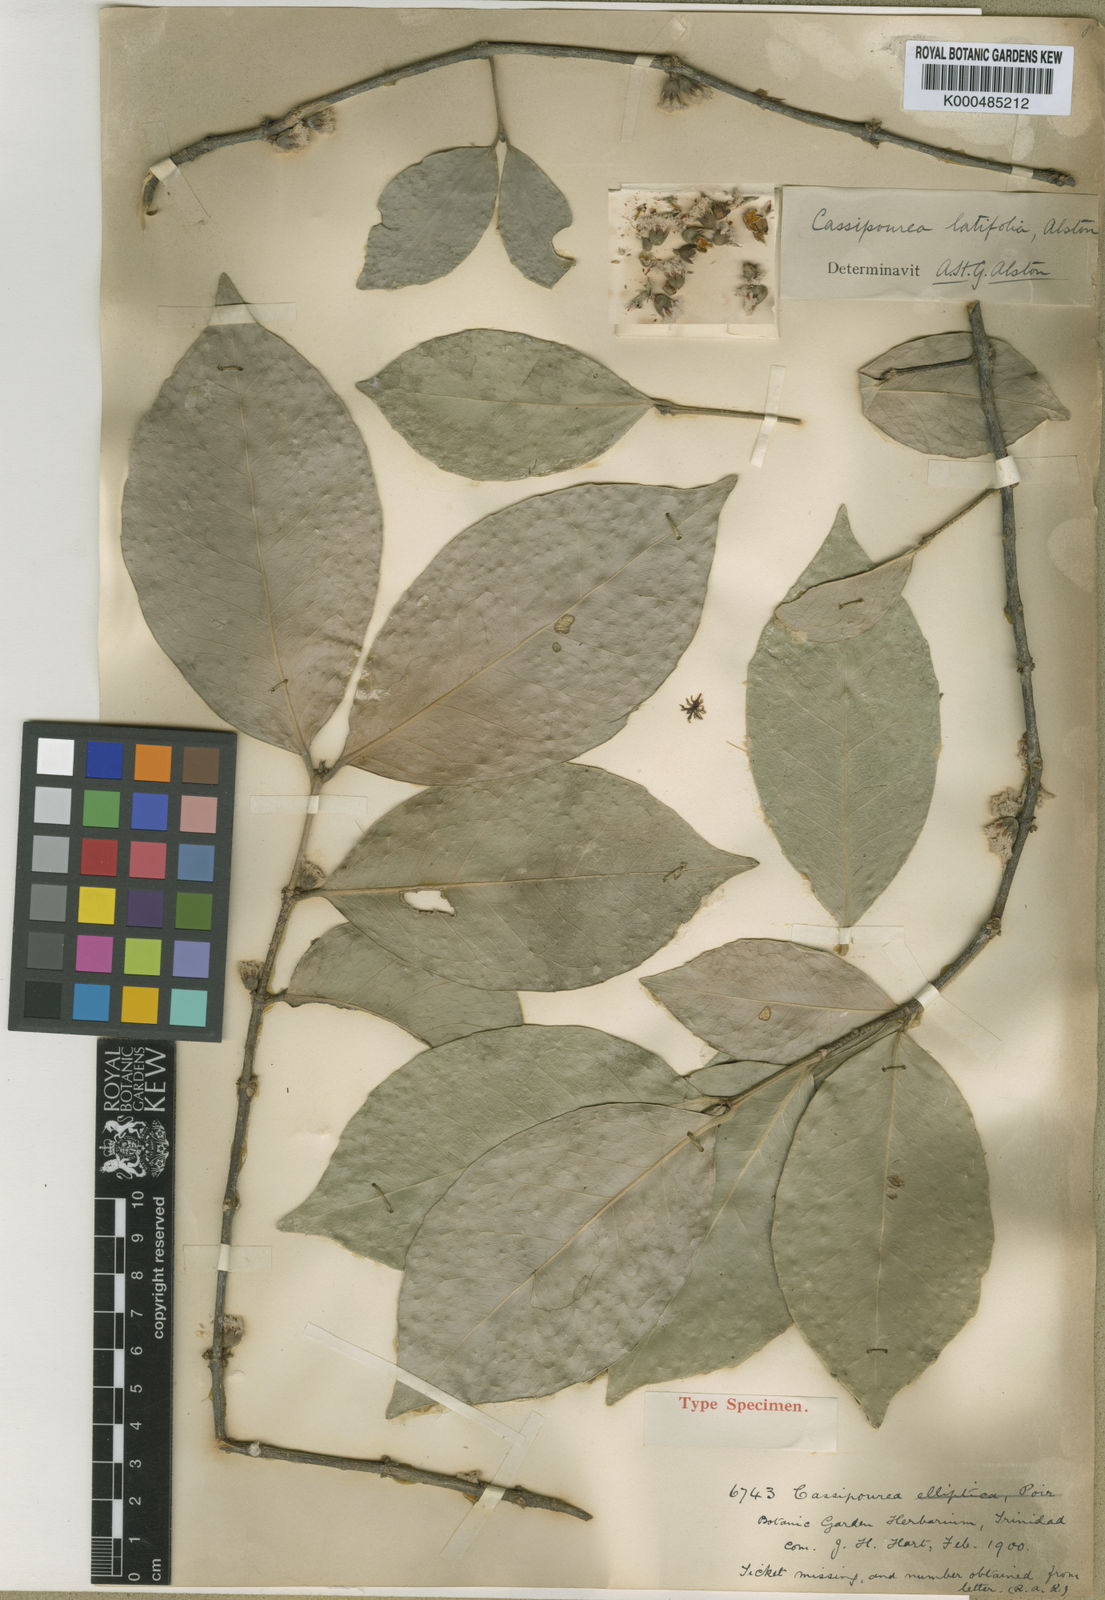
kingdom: Plantae
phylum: Tracheophyta
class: Magnoliopsida
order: Malpighiales
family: Rhizophoraceae
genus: Cassipourea
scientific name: Cassipourea guianensis
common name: Bastard waterwood
